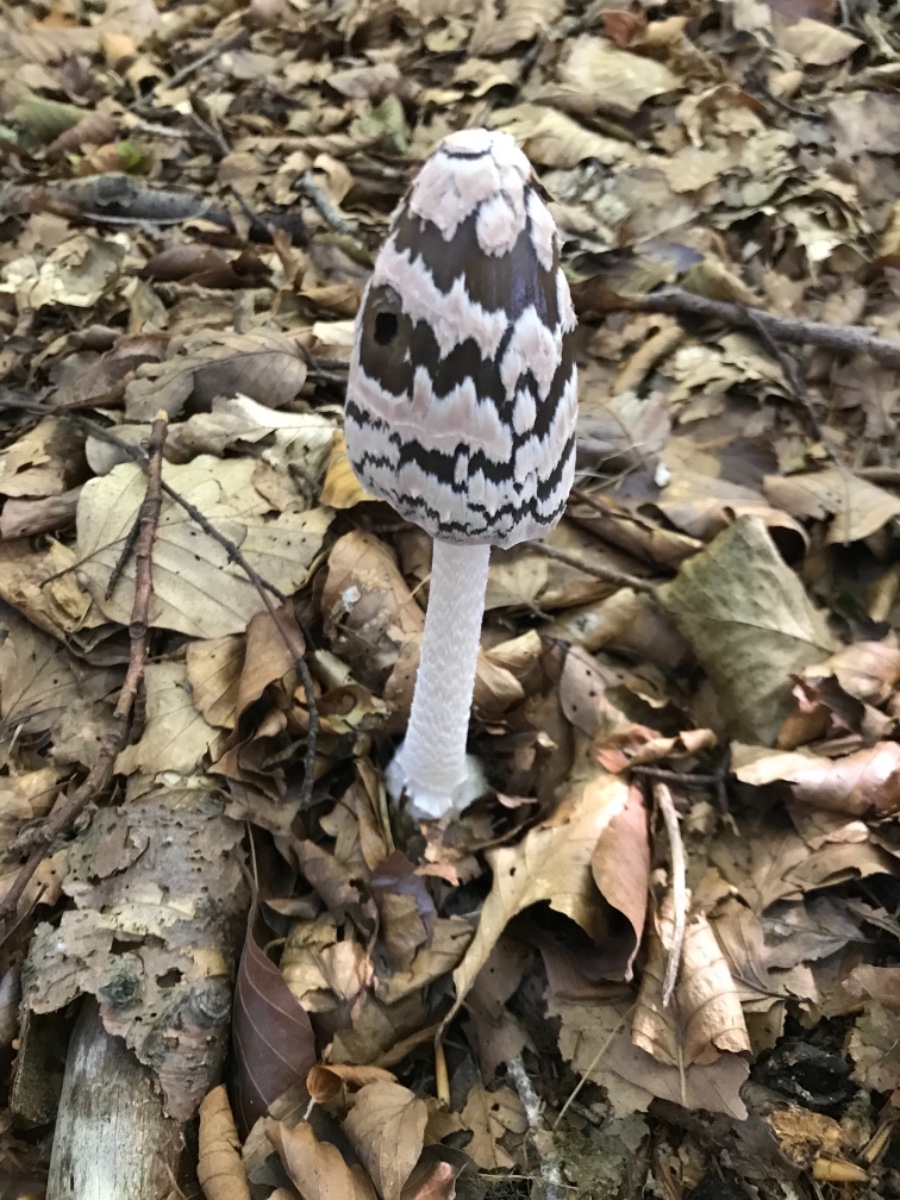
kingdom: Fungi
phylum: Basidiomycota
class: Agaricomycetes
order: Agaricales
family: Psathyrellaceae
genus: Coprinopsis
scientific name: Coprinopsis picacea
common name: skade-blækhat
